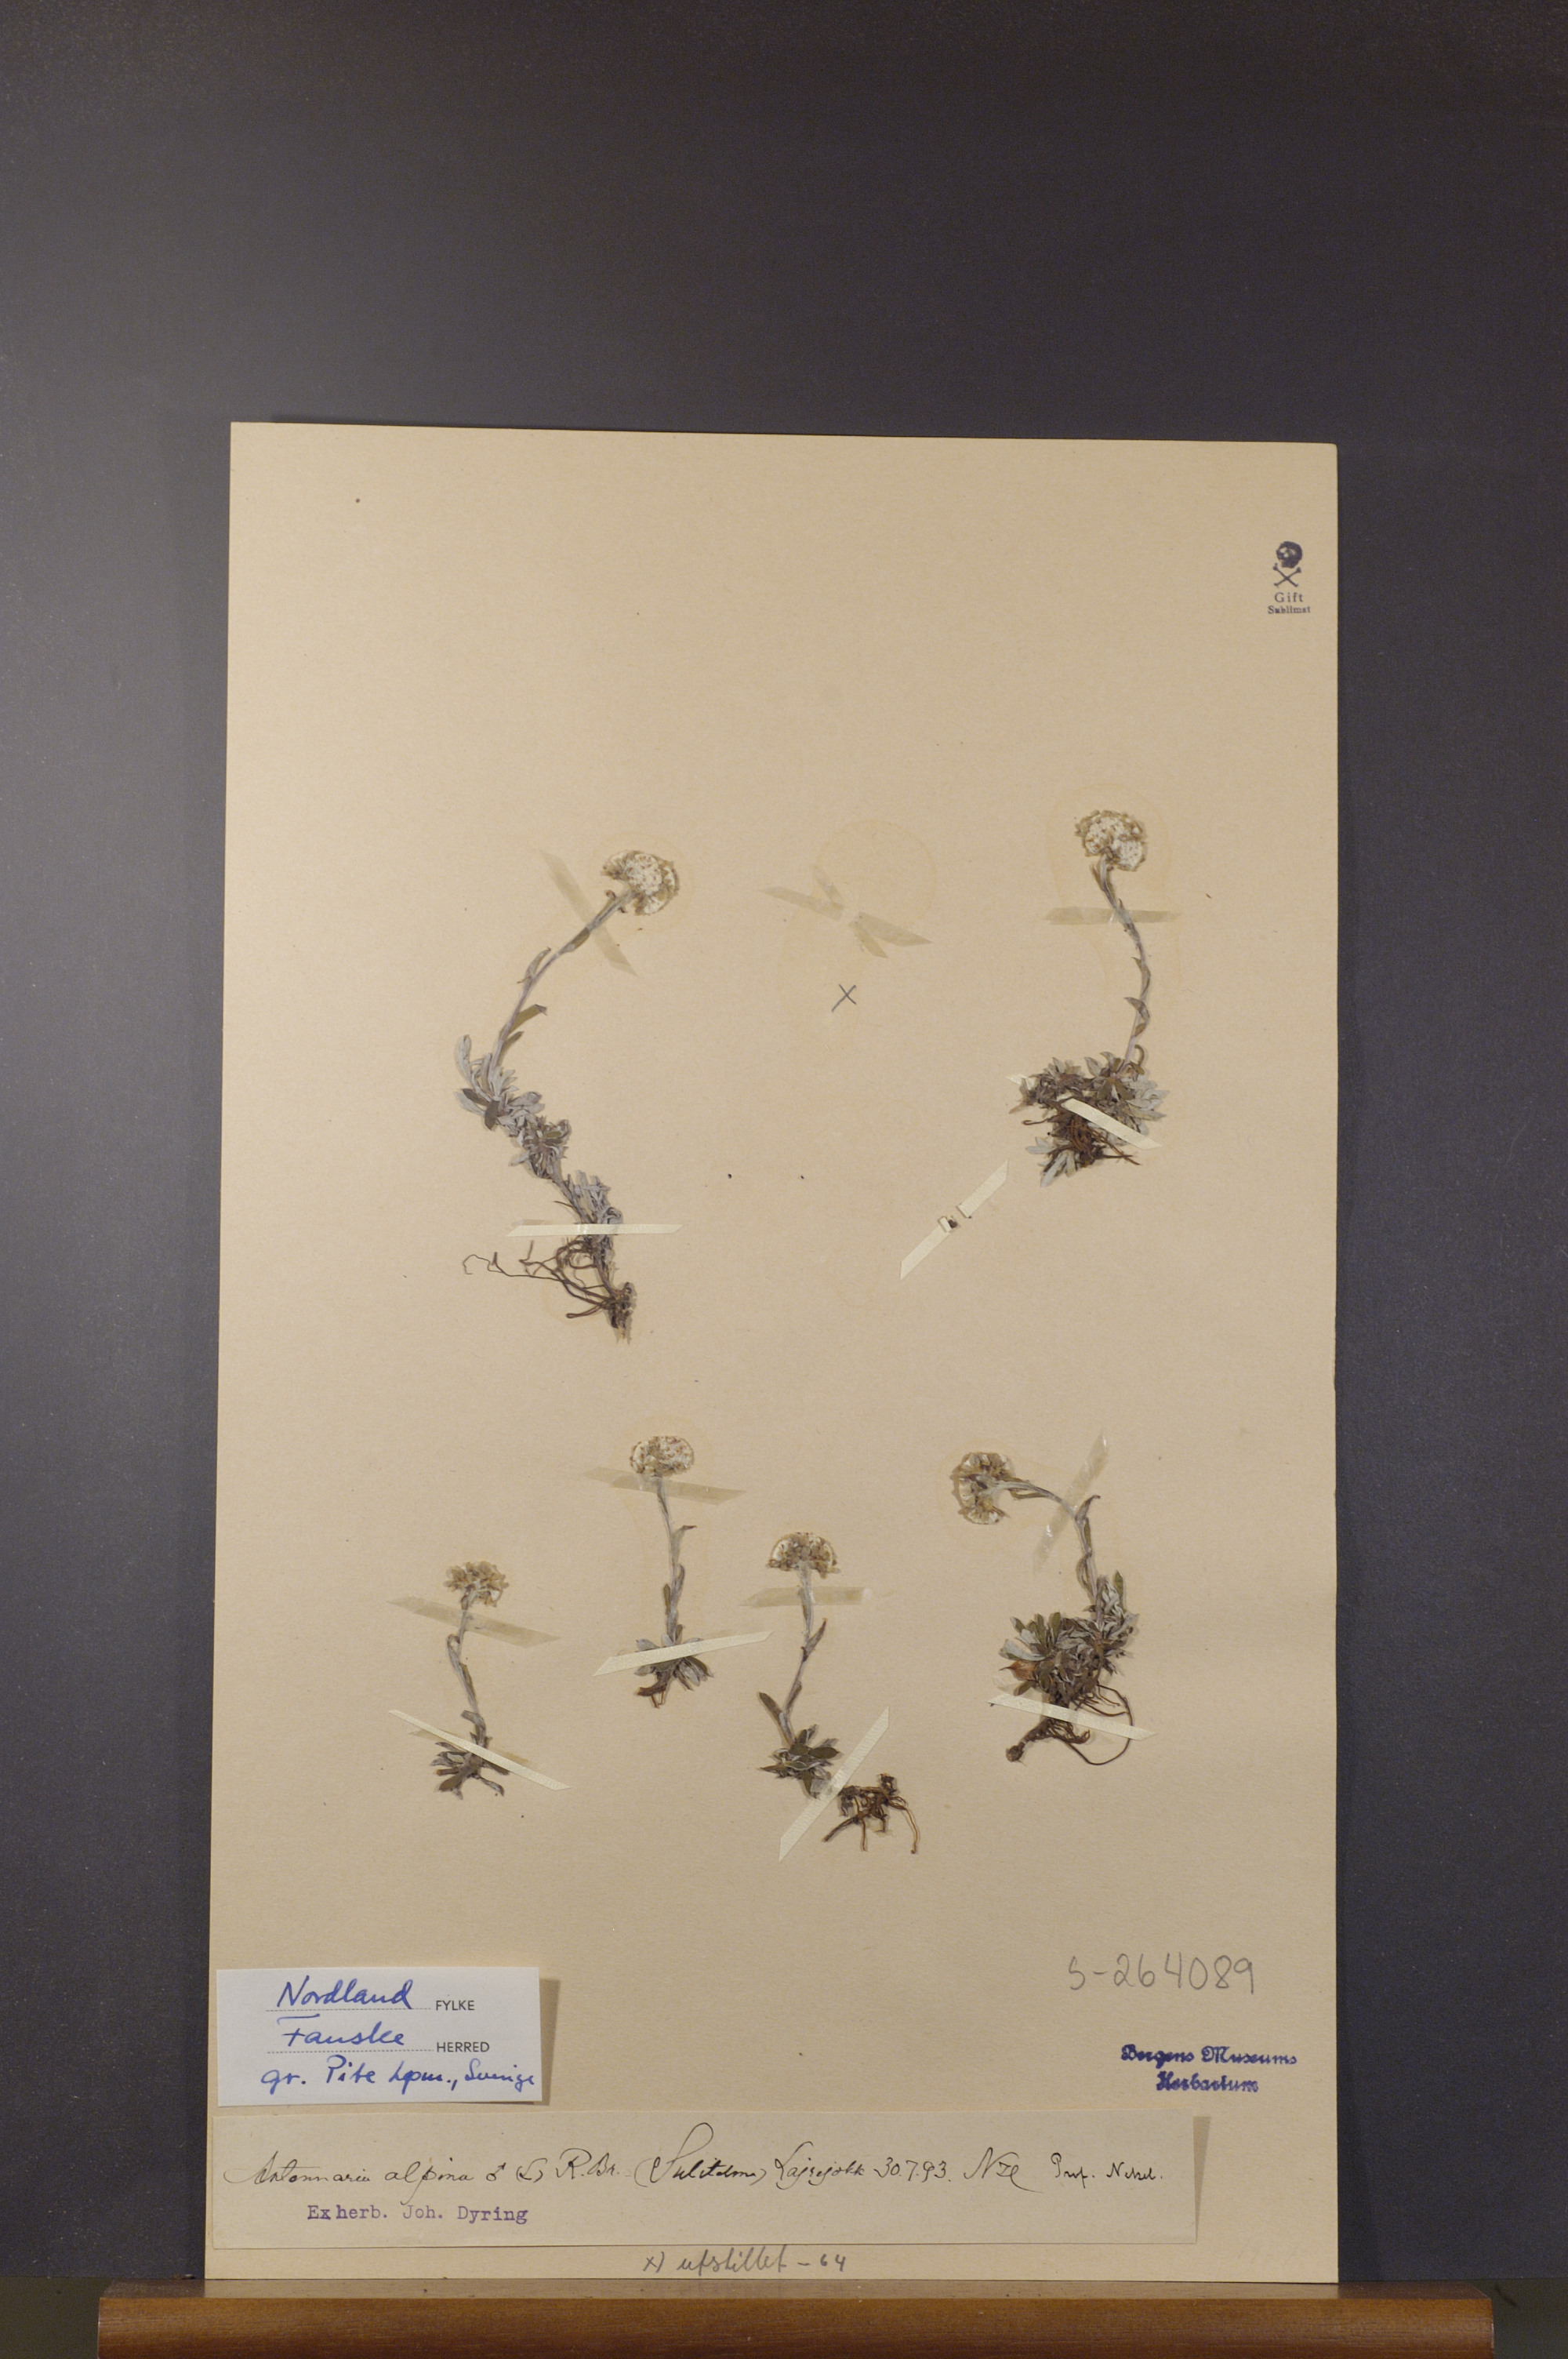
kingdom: Plantae
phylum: Tracheophyta
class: Magnoliopsida
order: Asterales
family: Asteraceae
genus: Antennaria
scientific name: Antennaria alpina
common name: Alpine pussytoes
